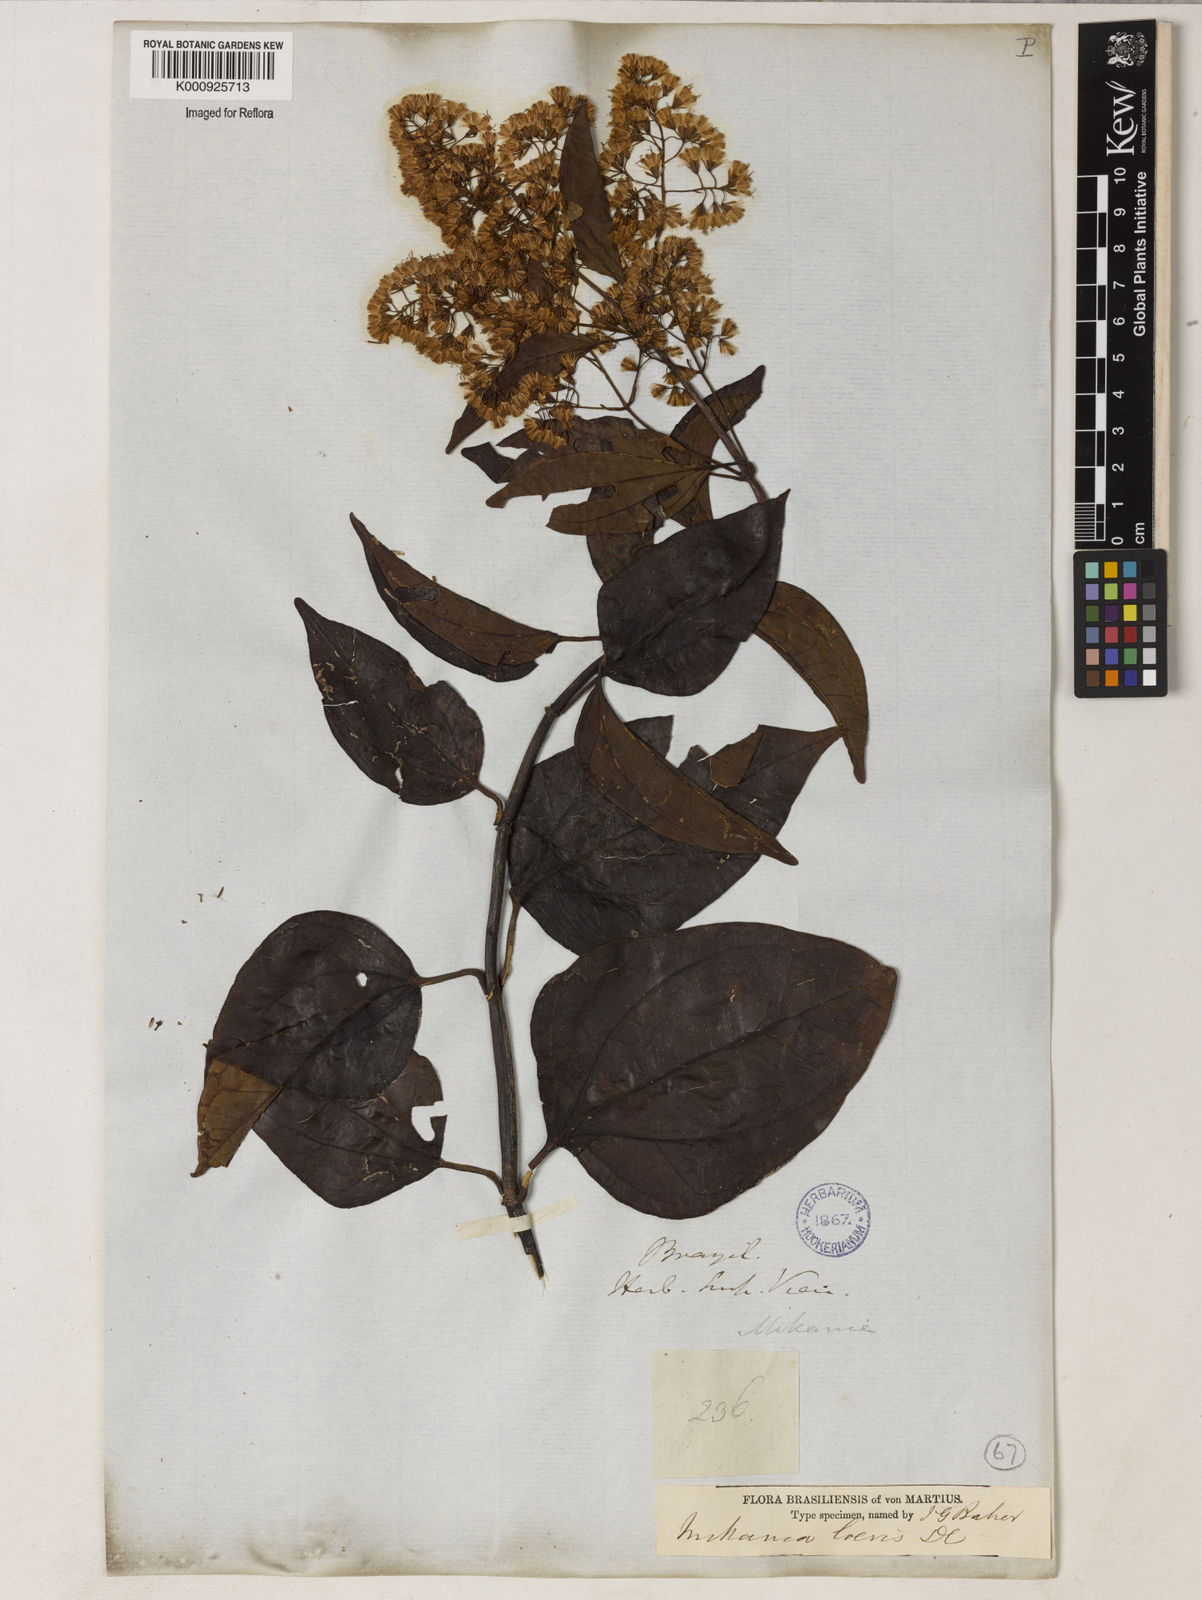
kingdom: Plantae
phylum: Tracheophyta
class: Magnoliopsida
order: Asterales
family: Asteraceae
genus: Mikania
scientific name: Mikania trinervis
